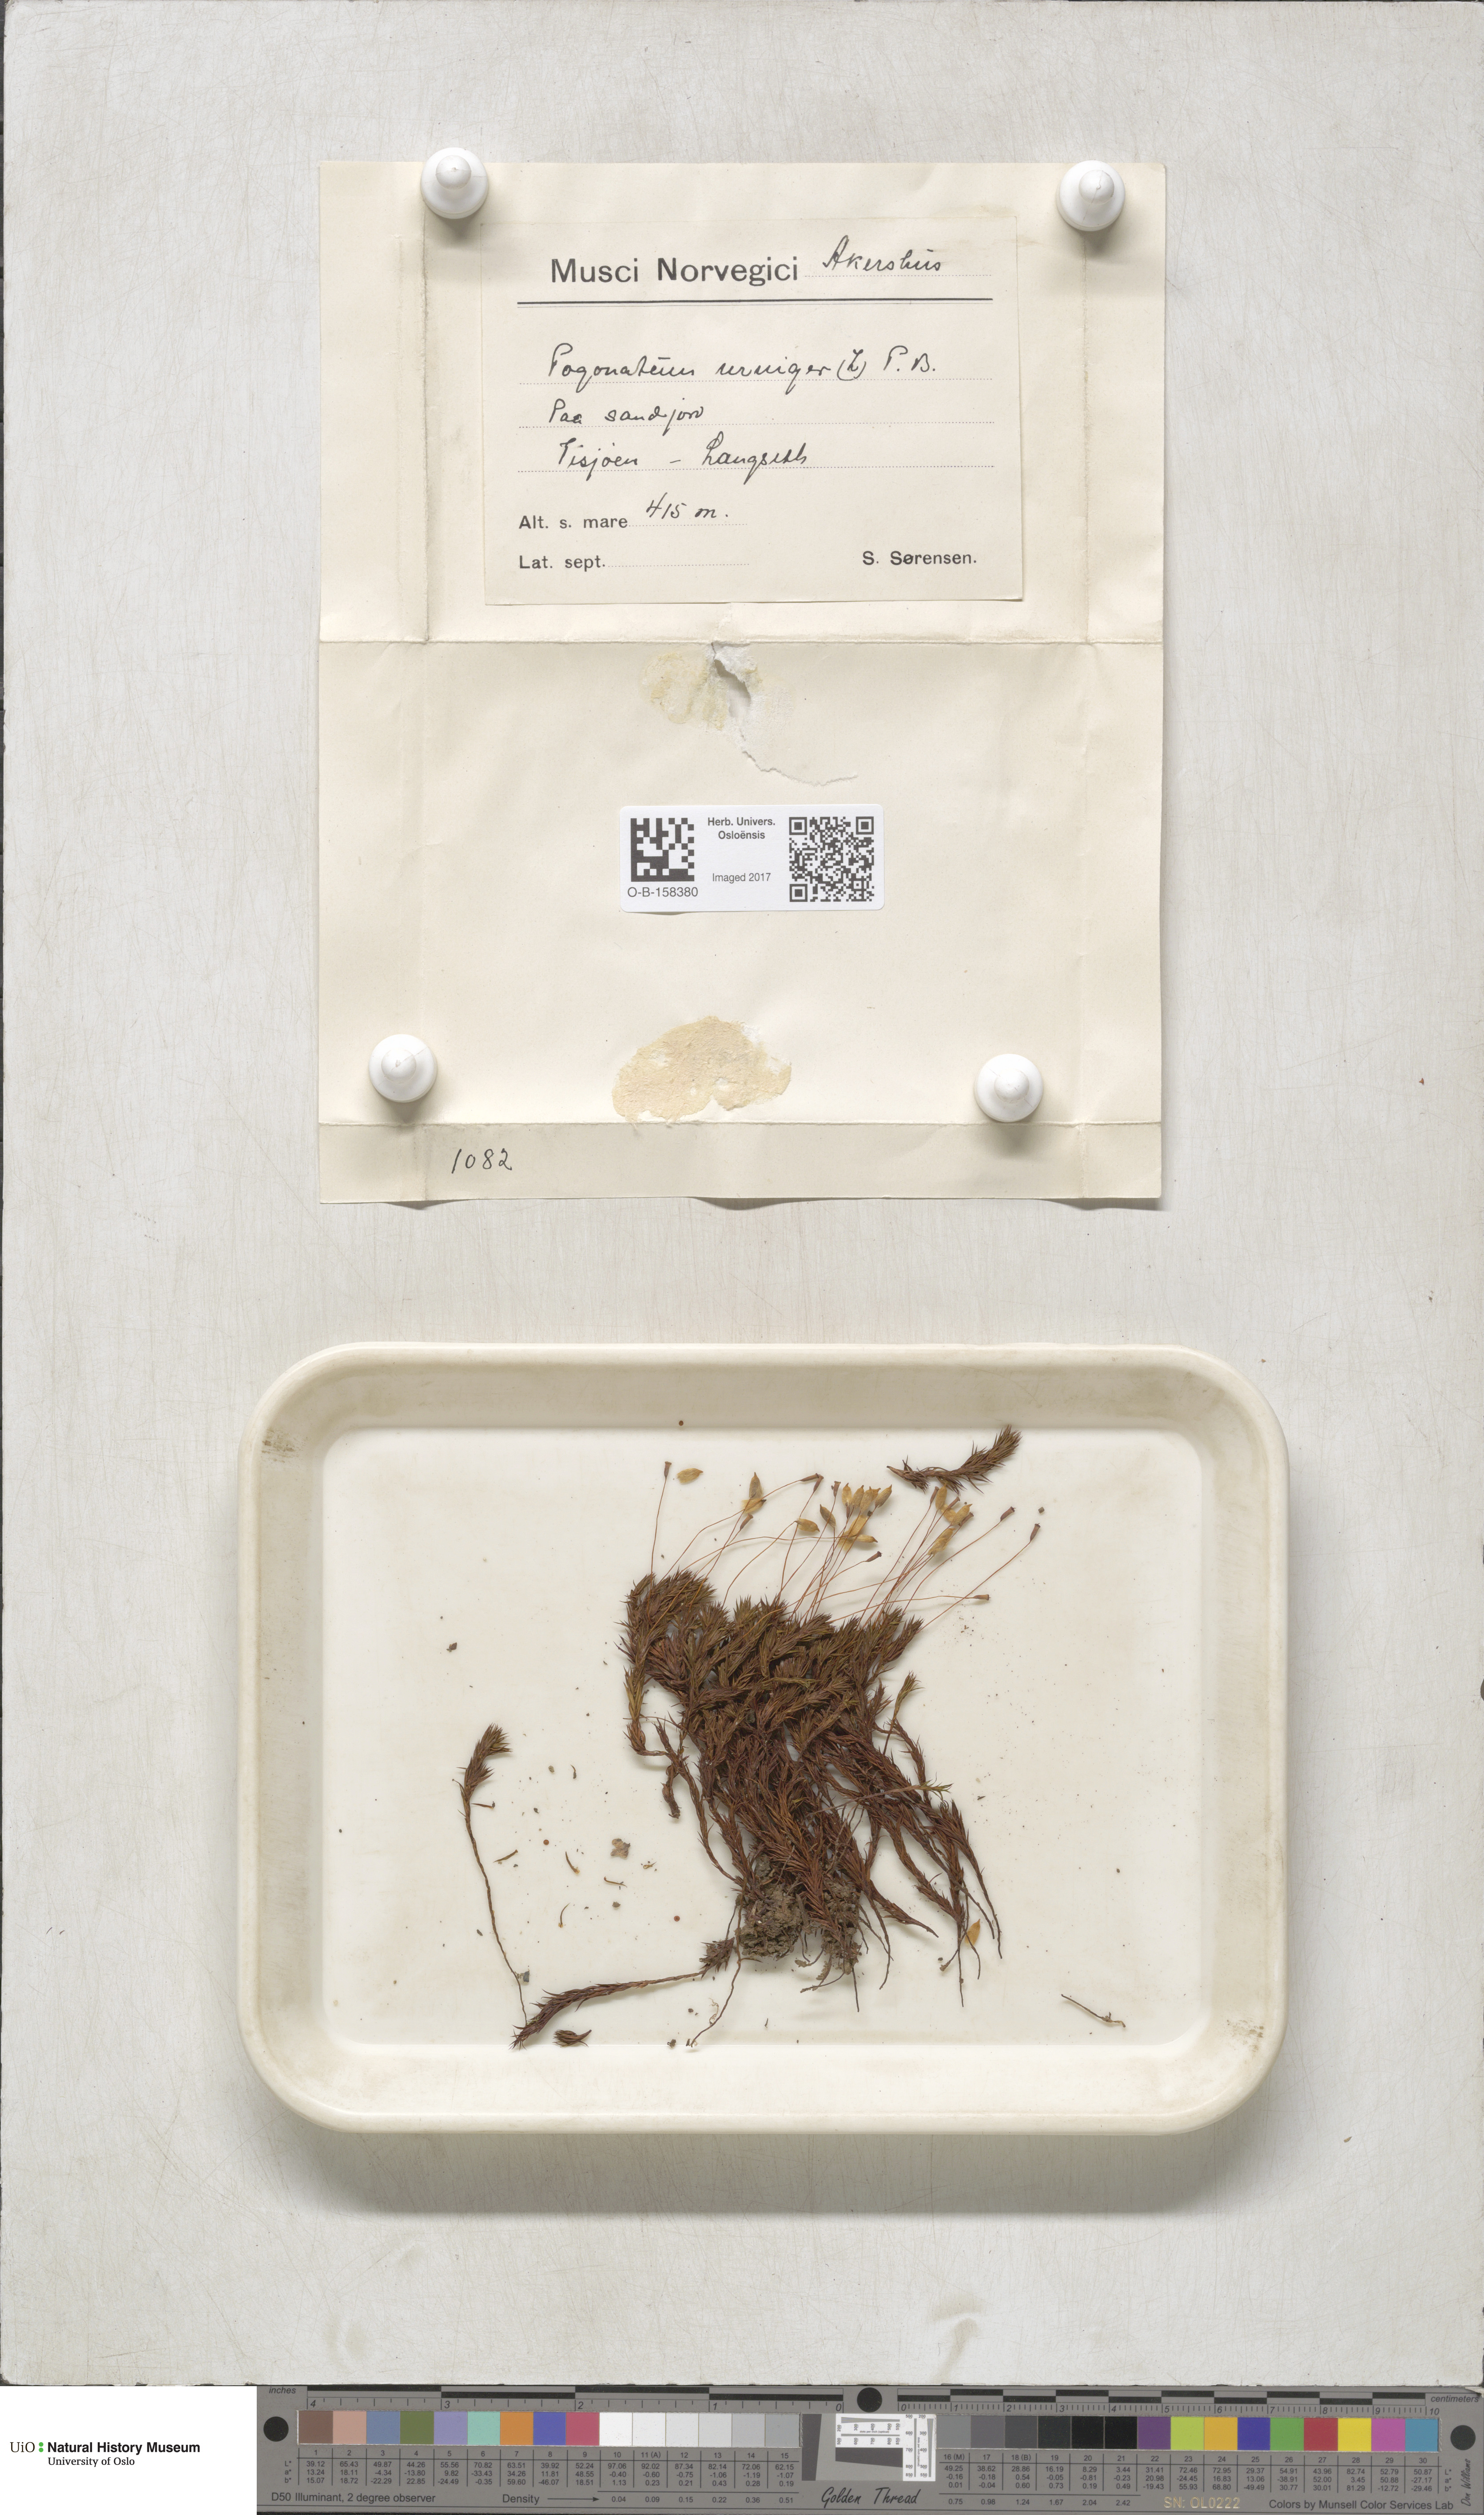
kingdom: Plantae
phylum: Bryophyta
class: Polytrichopsida
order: Polytrichales
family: Polytrichaceae
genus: Pogonatum
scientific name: Pogonatum urnigerum
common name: Urn hair moss
